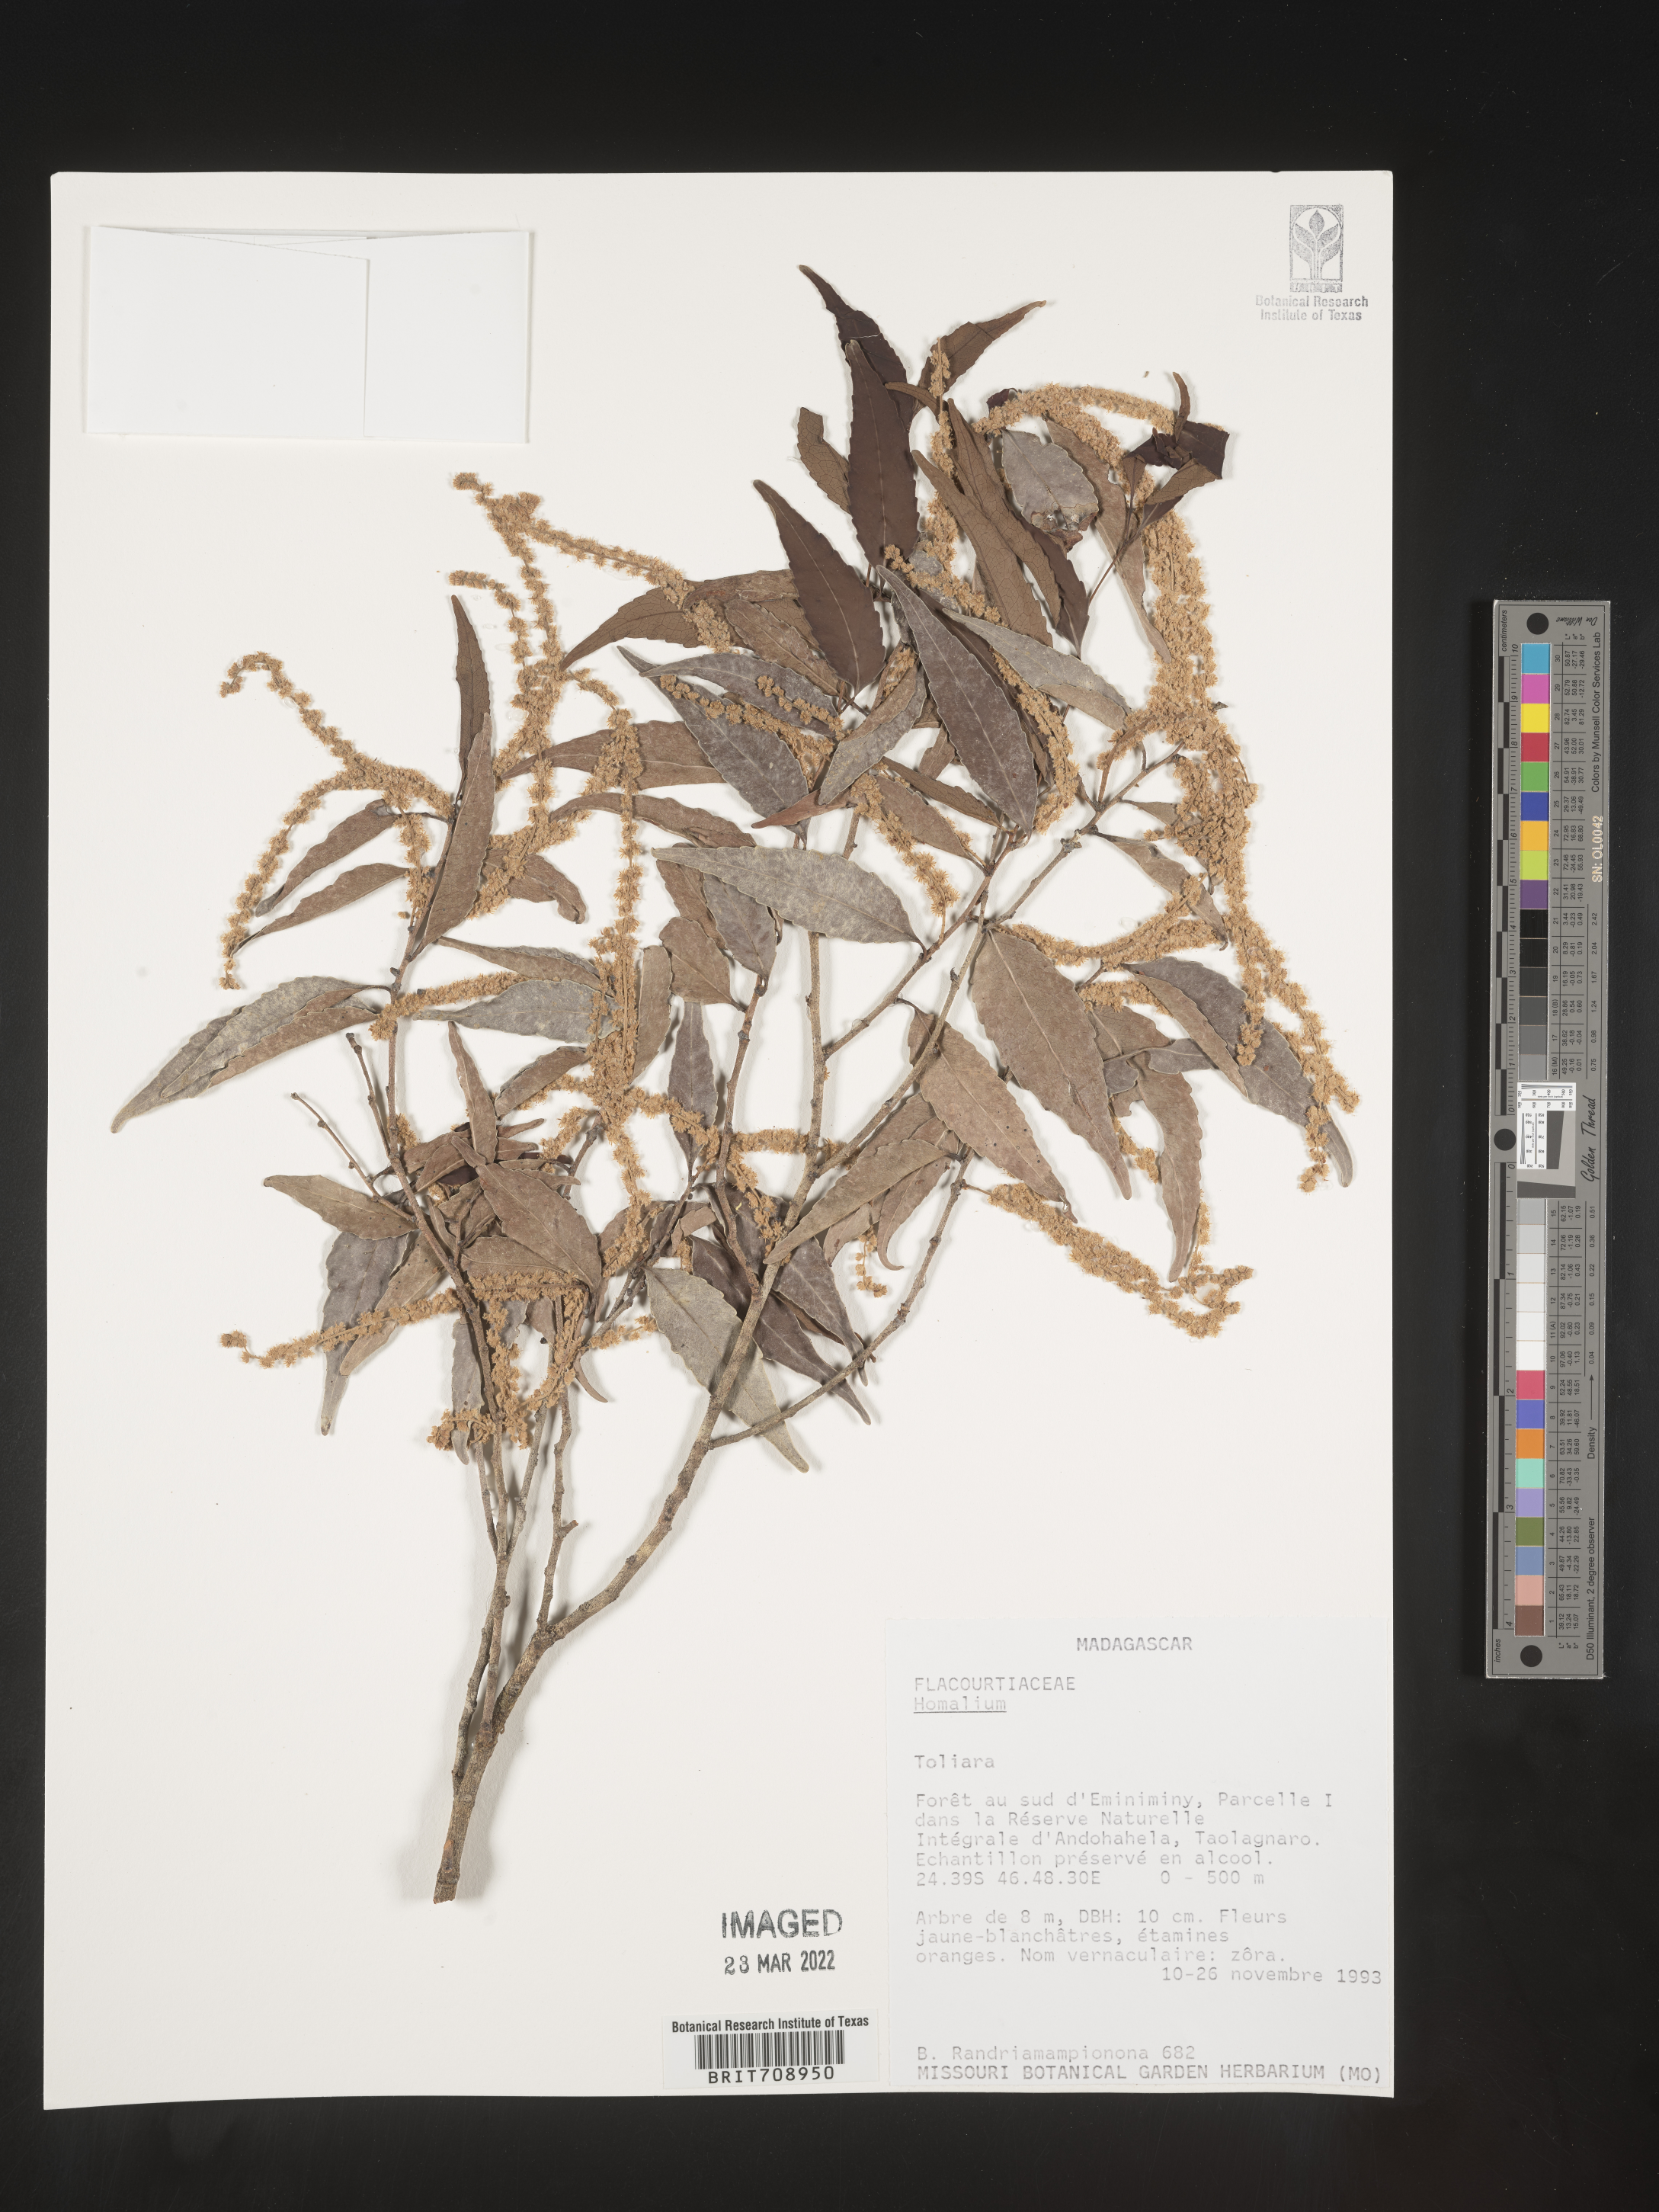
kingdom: Plantae
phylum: Tracheophyta
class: Magnoliopsida
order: Malpighiales
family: Salicaceae
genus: Homalium
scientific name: Homalium
